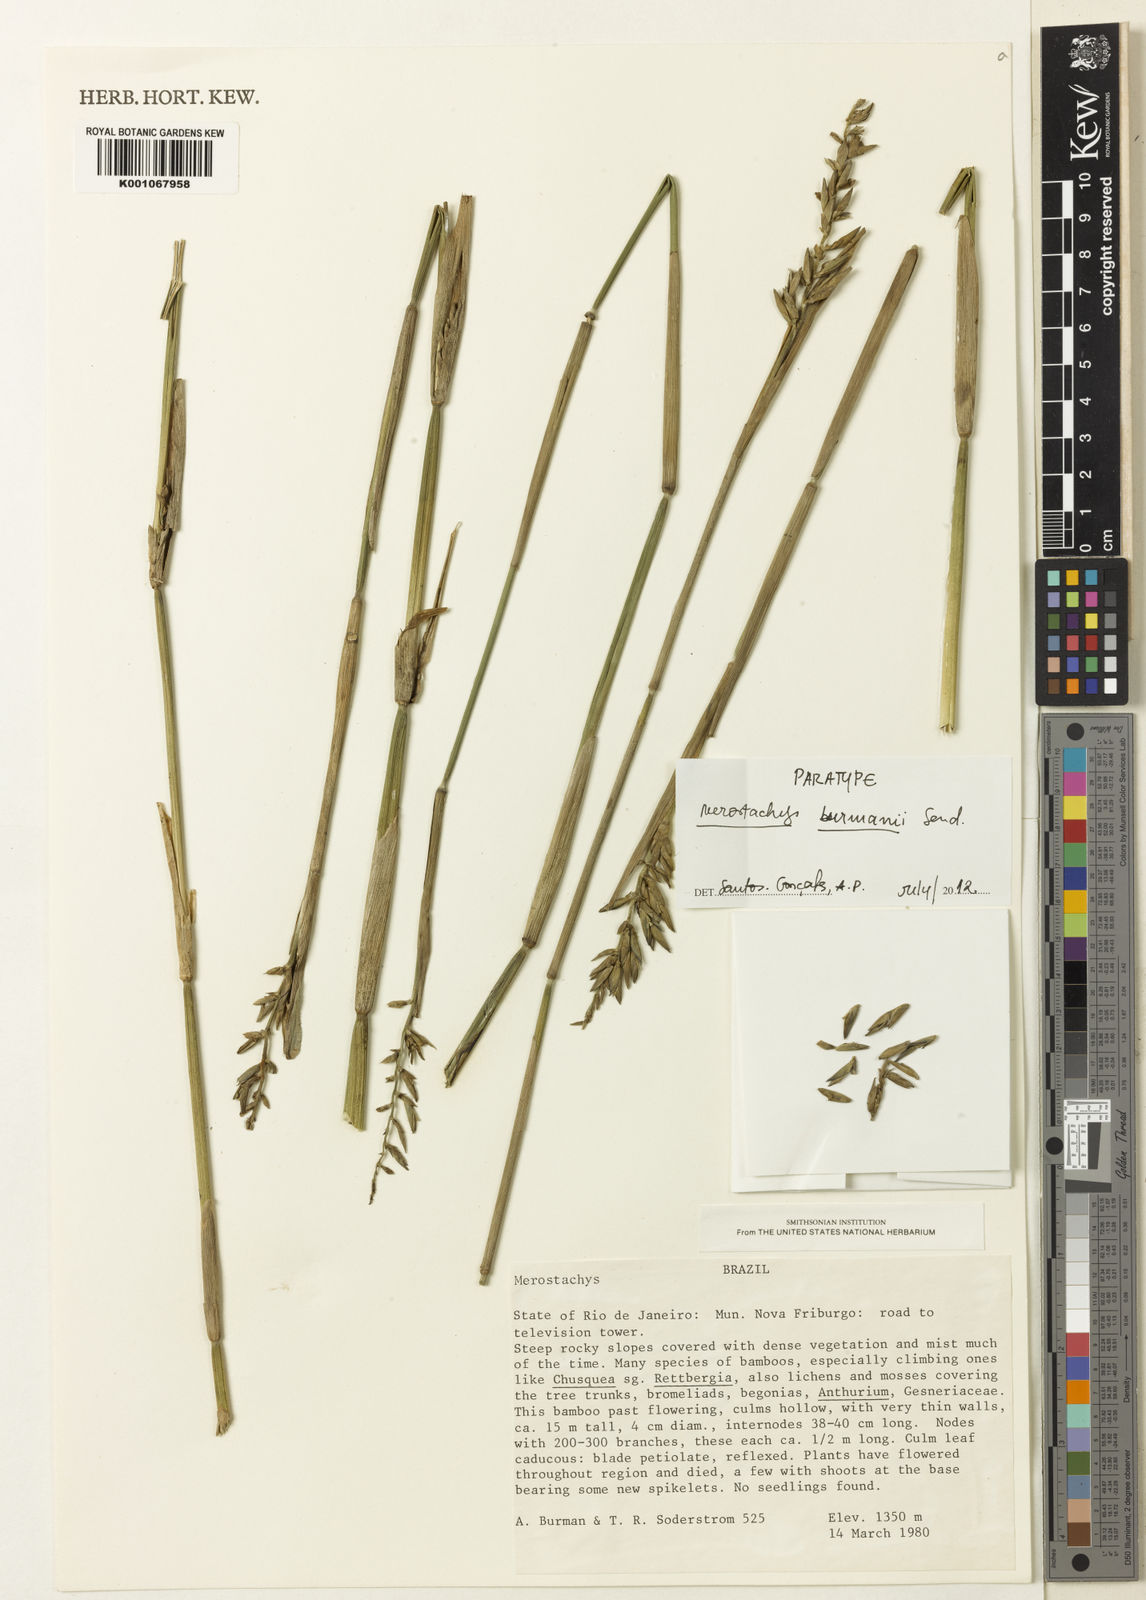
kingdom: Plantae
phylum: Tracheophyta
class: Liliopsida
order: Poales
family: Poaceae
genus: Merostachys
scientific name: Merostachys burmanii
